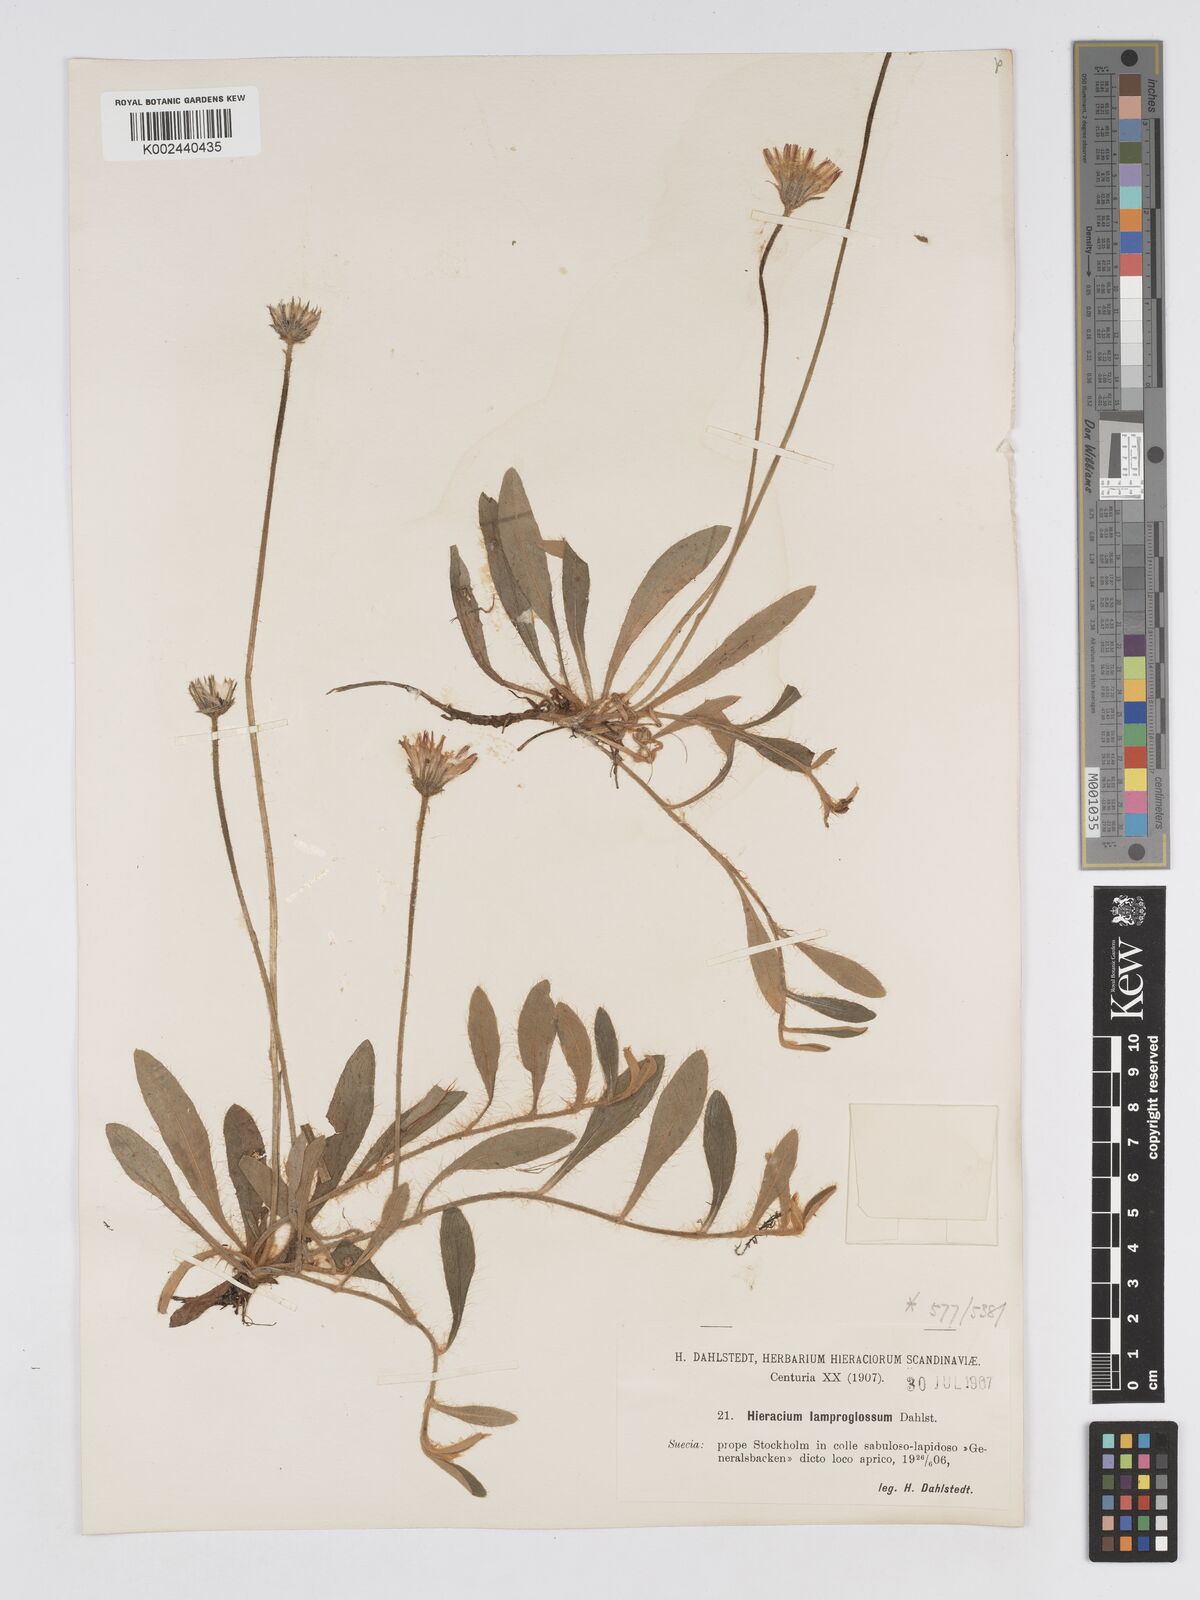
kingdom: Plantae
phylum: Tracheophyta
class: Magnoliopsida
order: Asterales
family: Asteraceae
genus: Pilosella
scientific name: Pilosella officinarum
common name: Mouse-ear hawkweed
